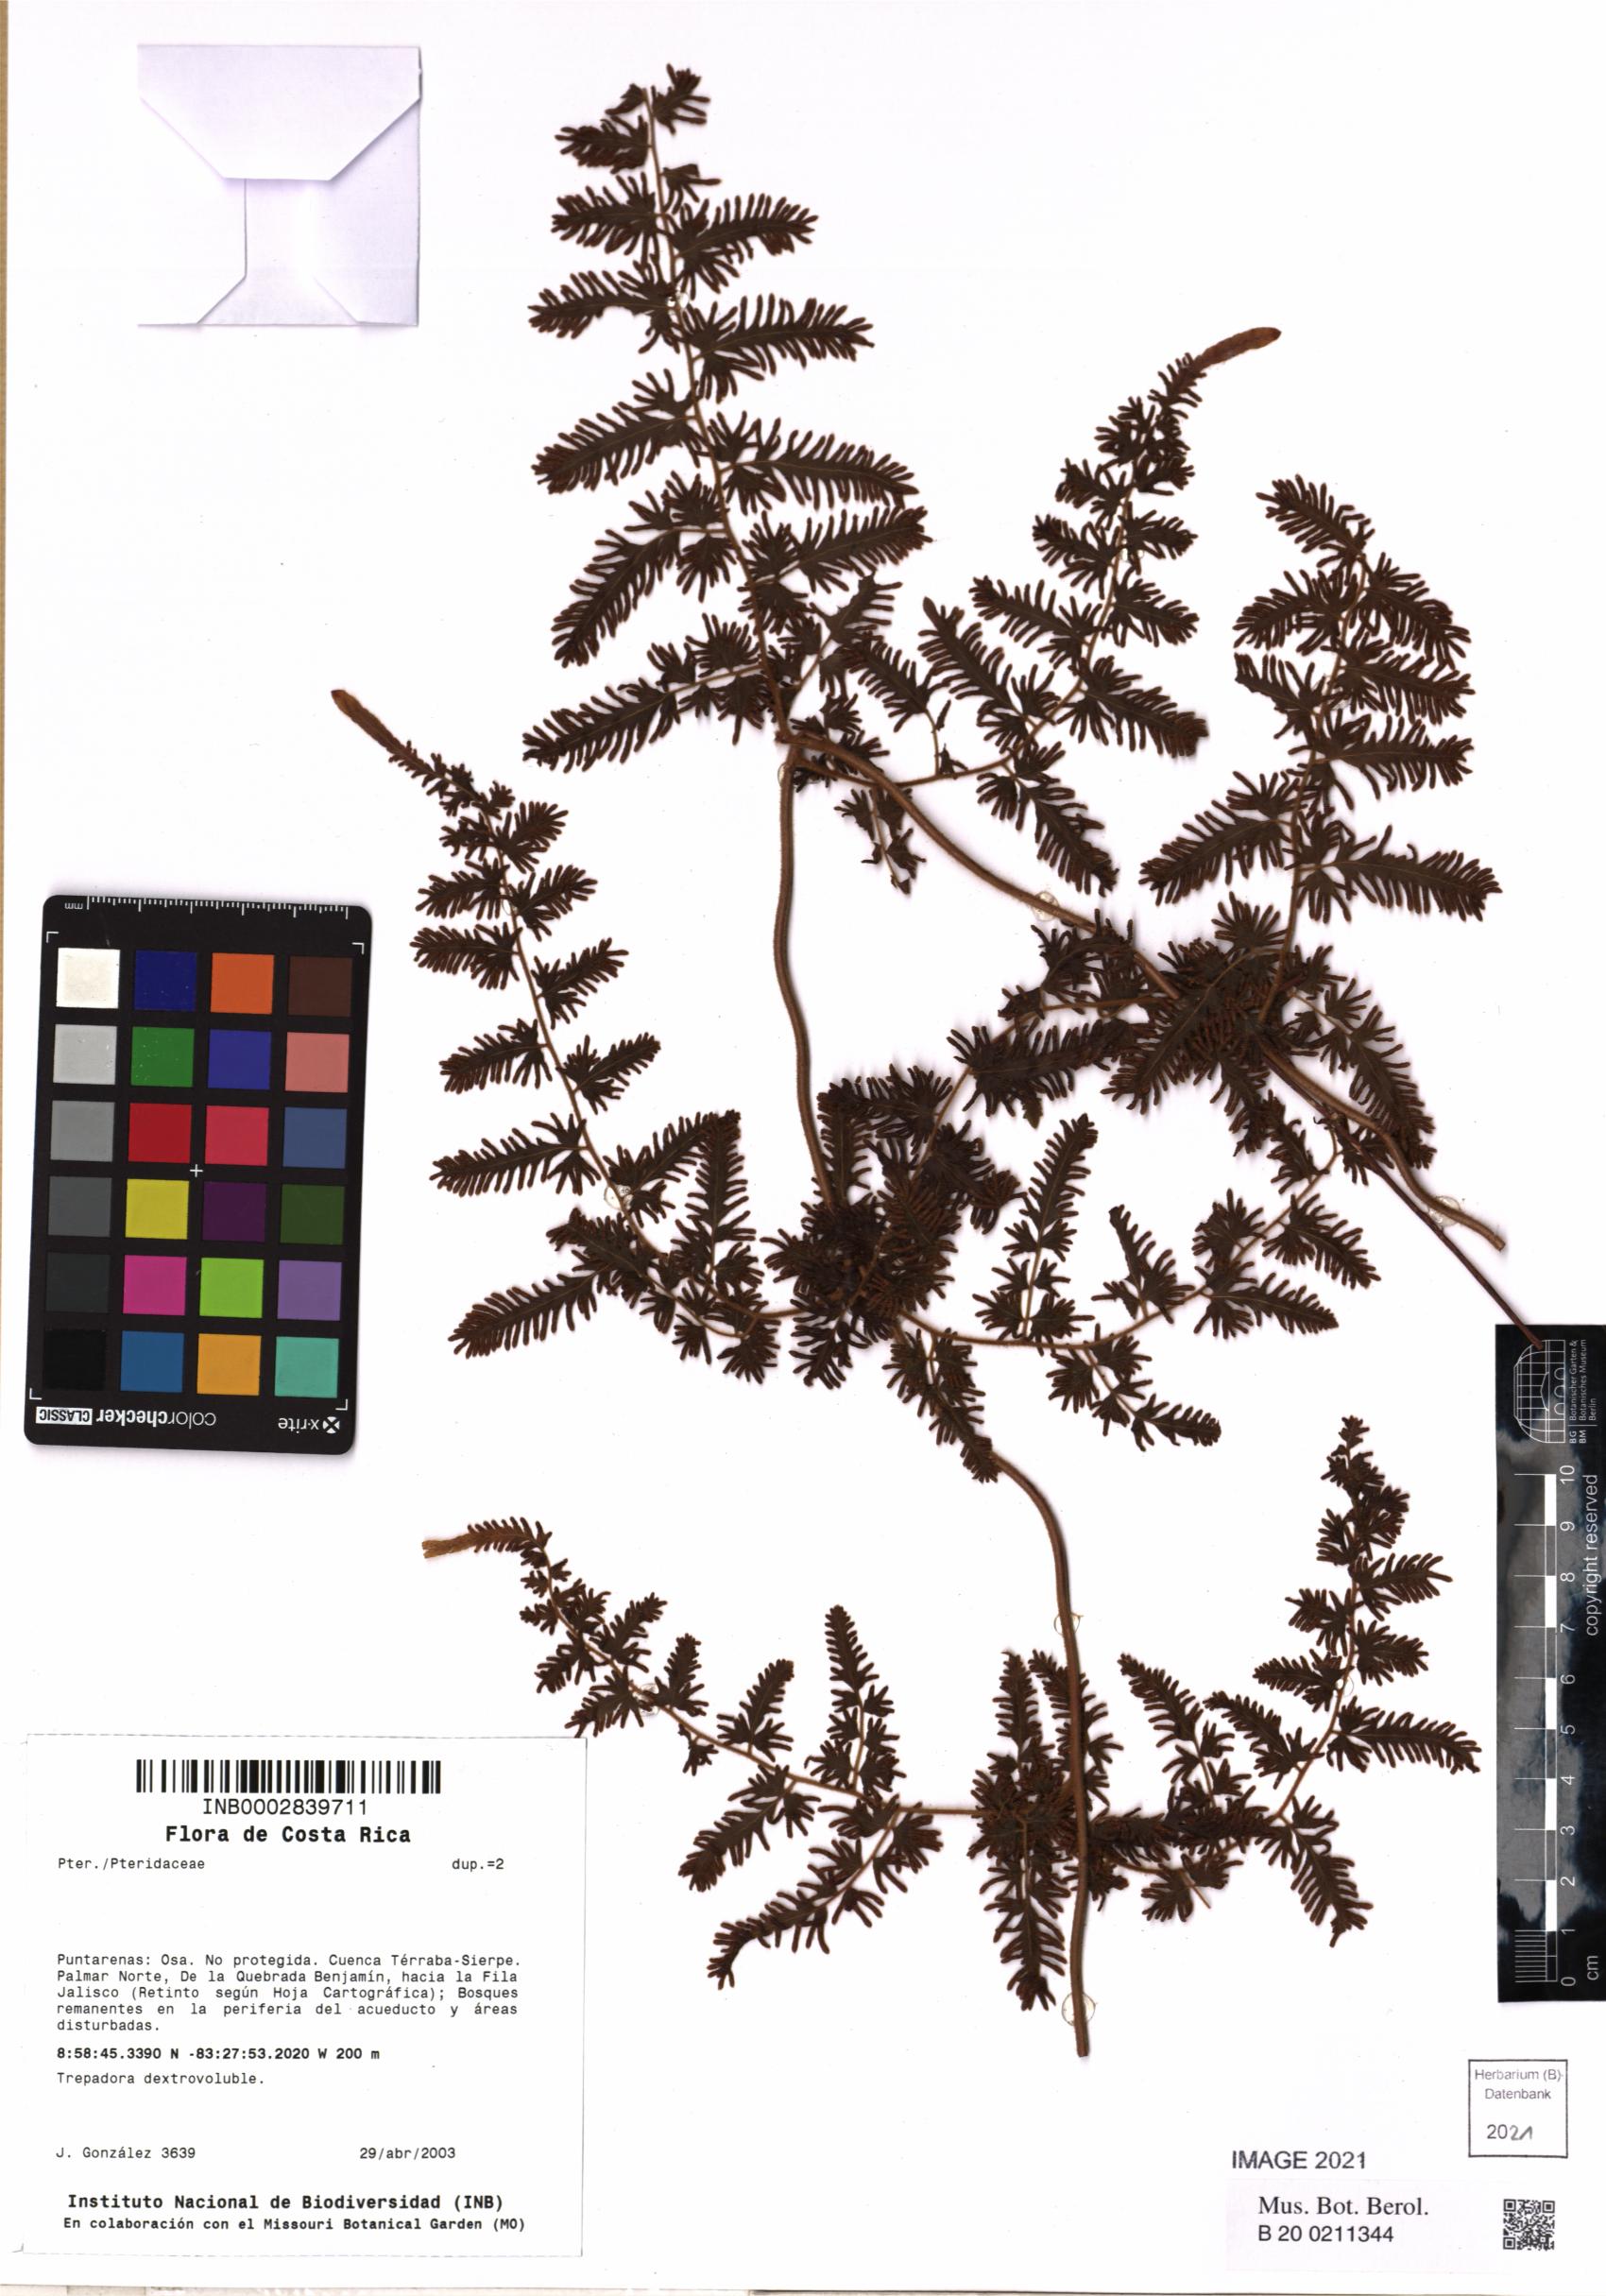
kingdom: Plantae
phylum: Tracheophyta
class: Polypodiopsida
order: Polypodiales
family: Pteridaceae
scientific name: Pteridaceae
